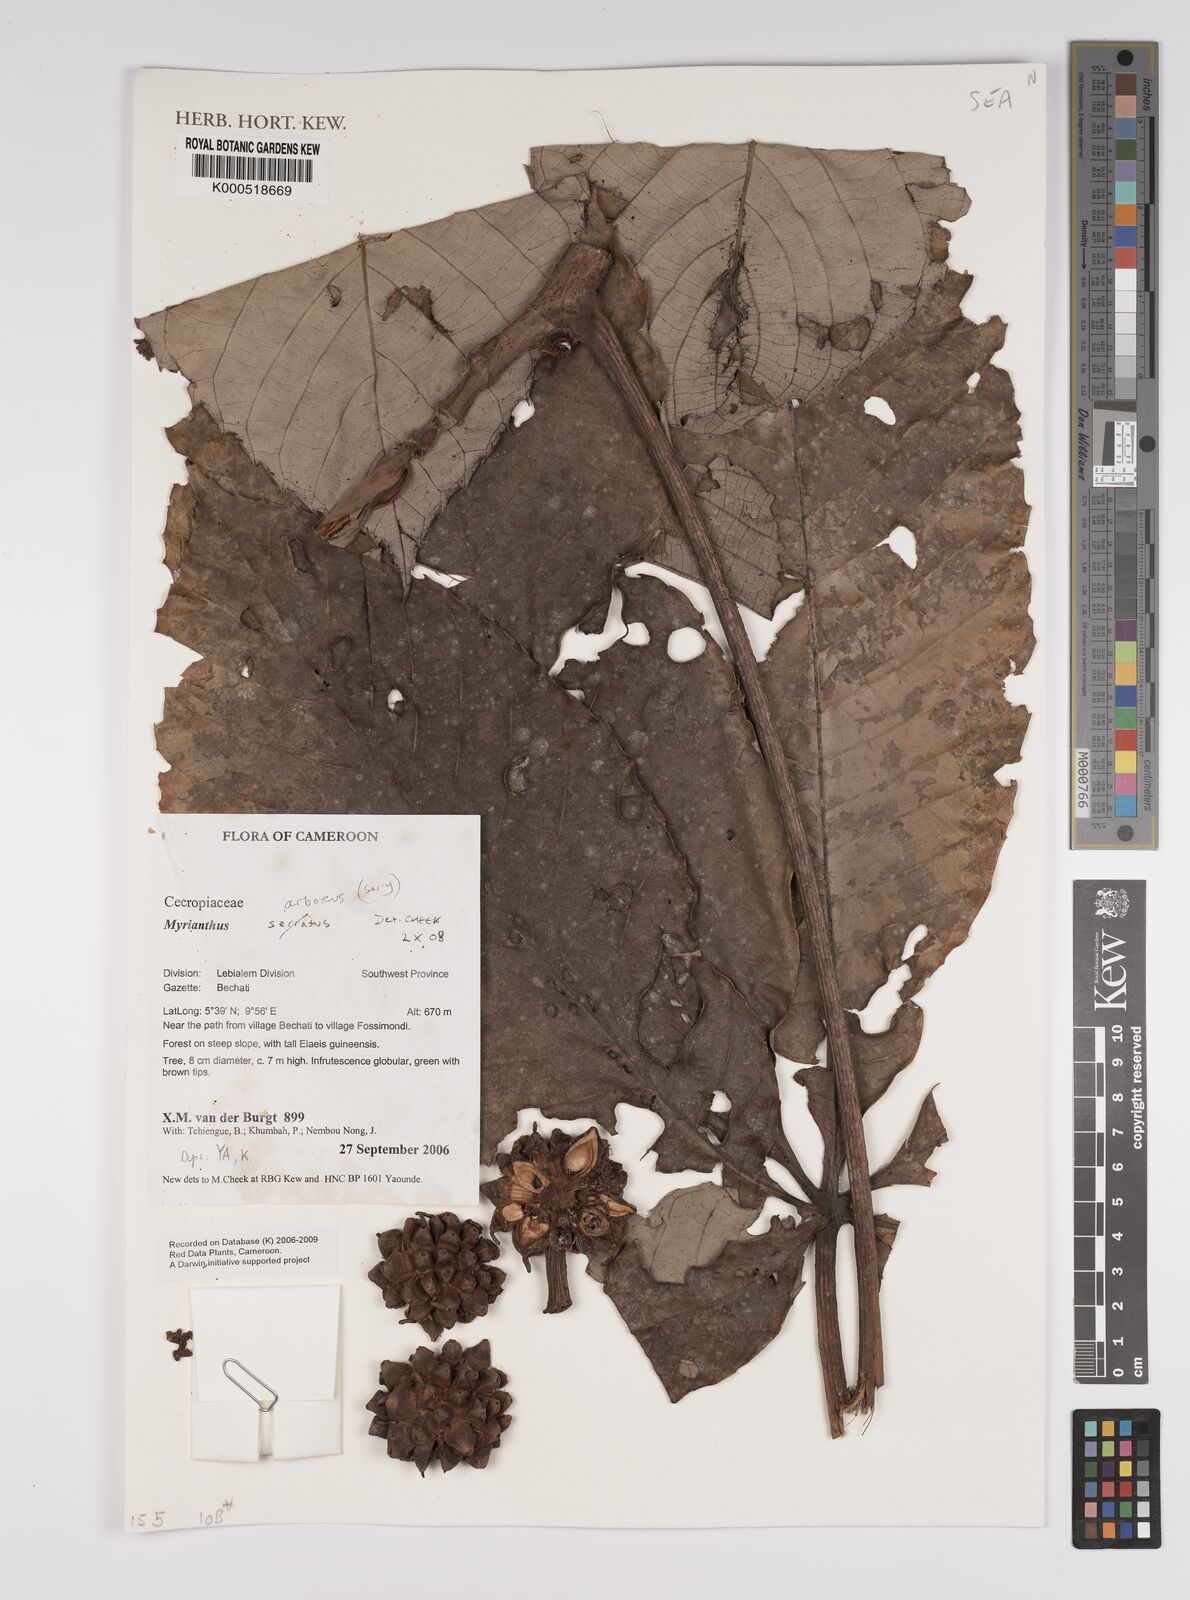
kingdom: Plantae
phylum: Tracheophyta
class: Magnoliopsida
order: Rosales
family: Urticaceae
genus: Myrianthus
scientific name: Myrianthus arboreus
